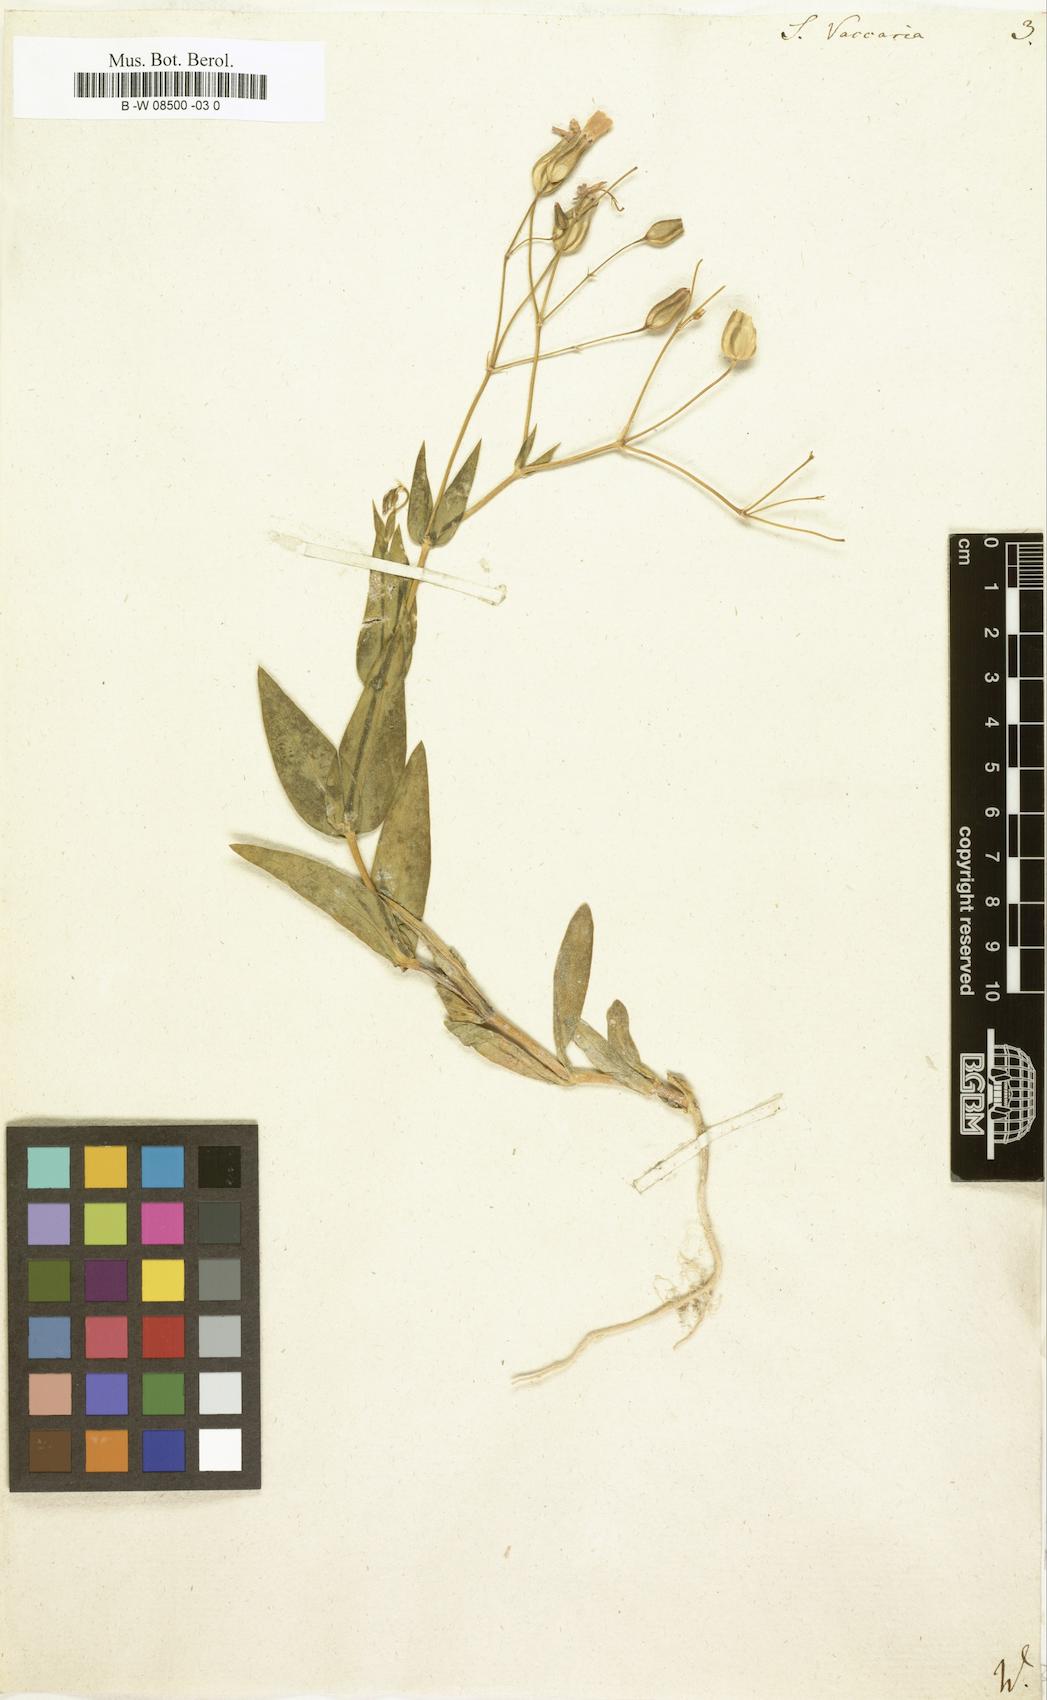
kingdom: Plantae
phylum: Tracheophyta
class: Magnoliopsida
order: Caryophyllales
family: Caryophyllaceae
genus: Gypsophila
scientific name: Gypsophila vaccaria
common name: Cow soapwort
